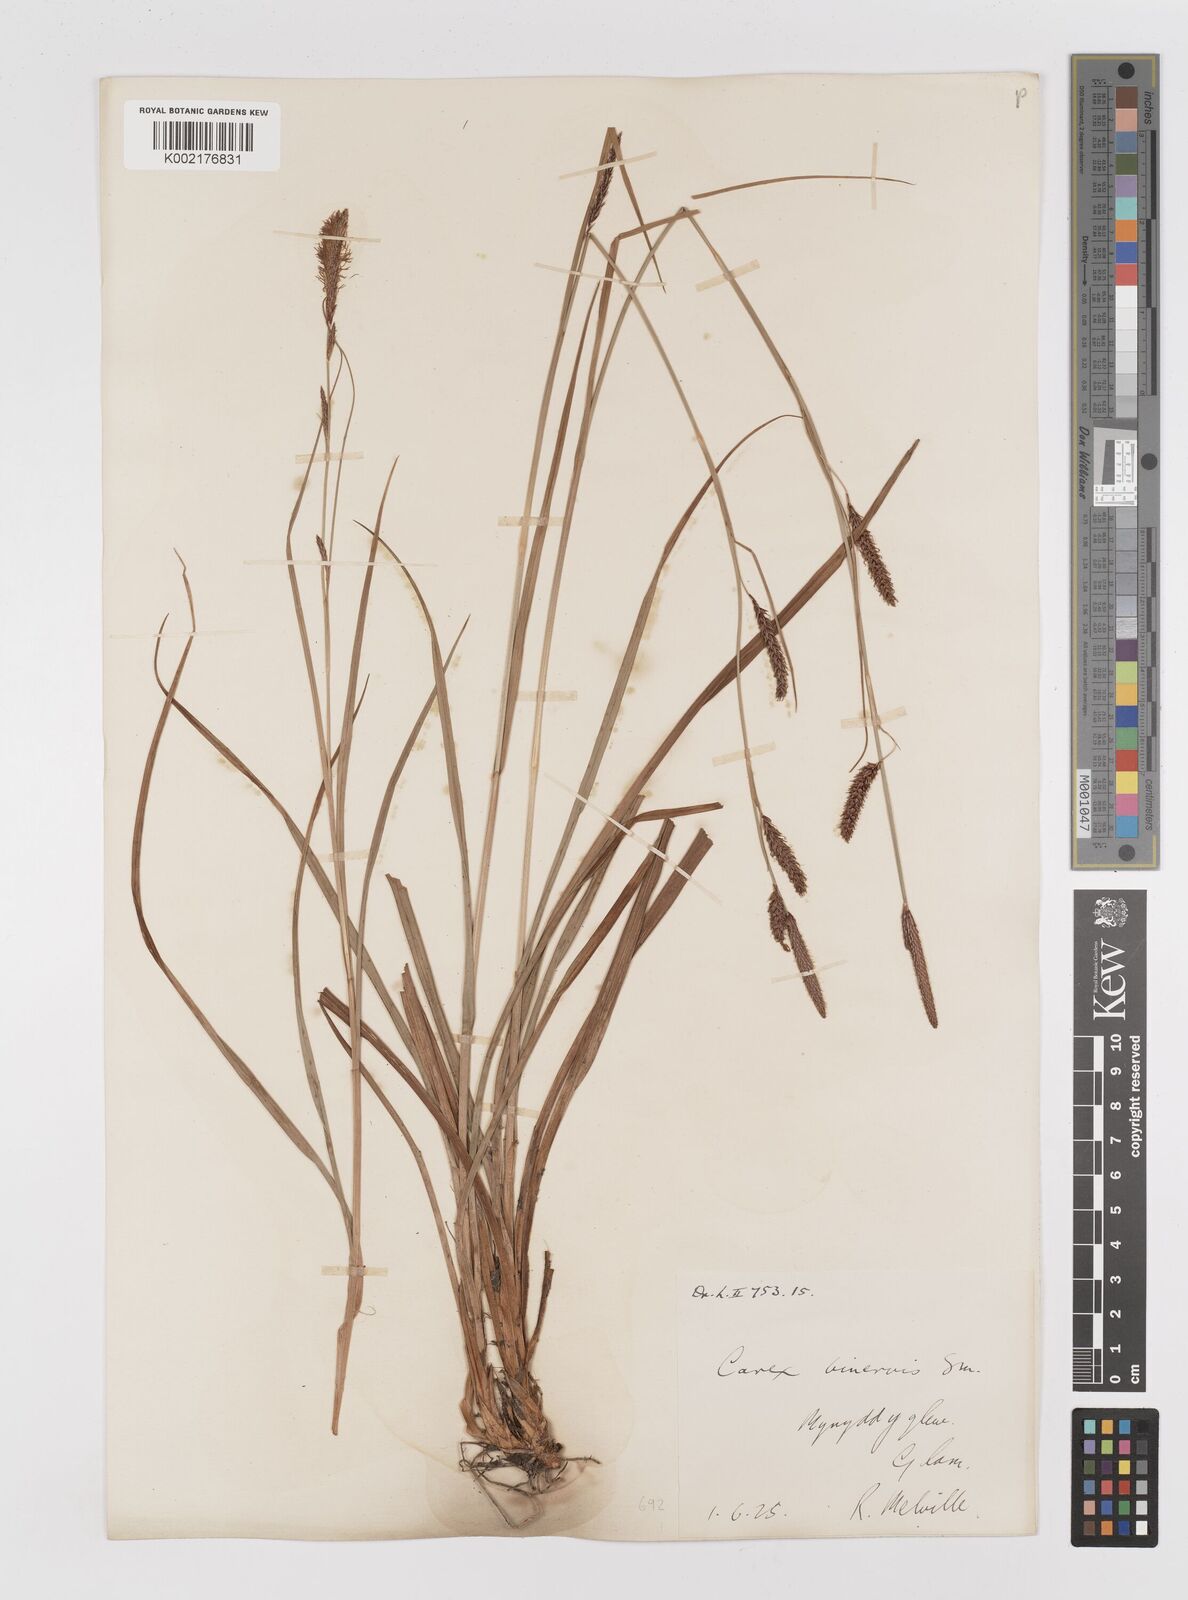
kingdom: Plantae
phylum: Tracheophyta
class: Liliopsida
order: Poales
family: Cyperaceae
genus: Carex
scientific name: Carex binervis
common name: Green-ribbed sedge
